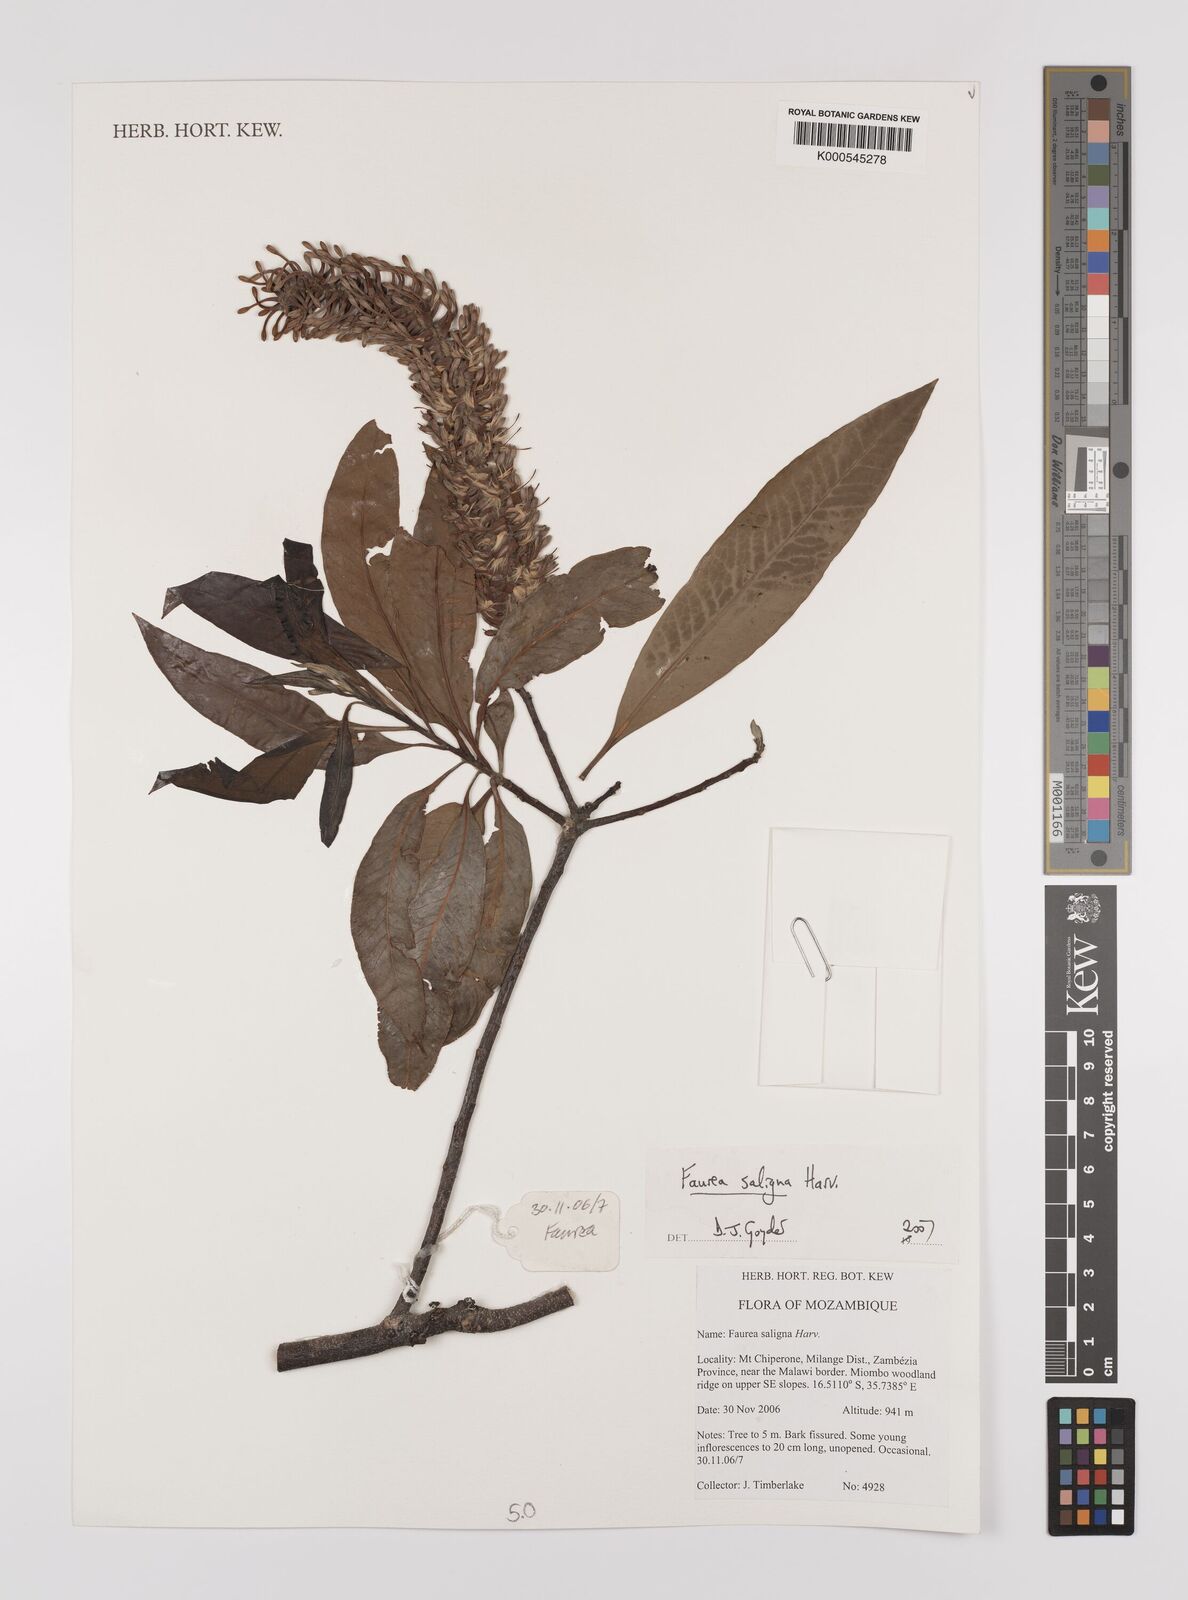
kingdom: Plantae
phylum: Tracheophyta
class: Magnoliopsida
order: Proteales
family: Proteaceae
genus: Faurea
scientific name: Faurea saligna
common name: African bean
